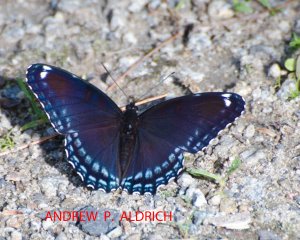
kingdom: Animalia
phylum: Arthropoda
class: Insecta
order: Lepidoptera
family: Nymphalidae
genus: Limenitis
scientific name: Limenitis astyanax
